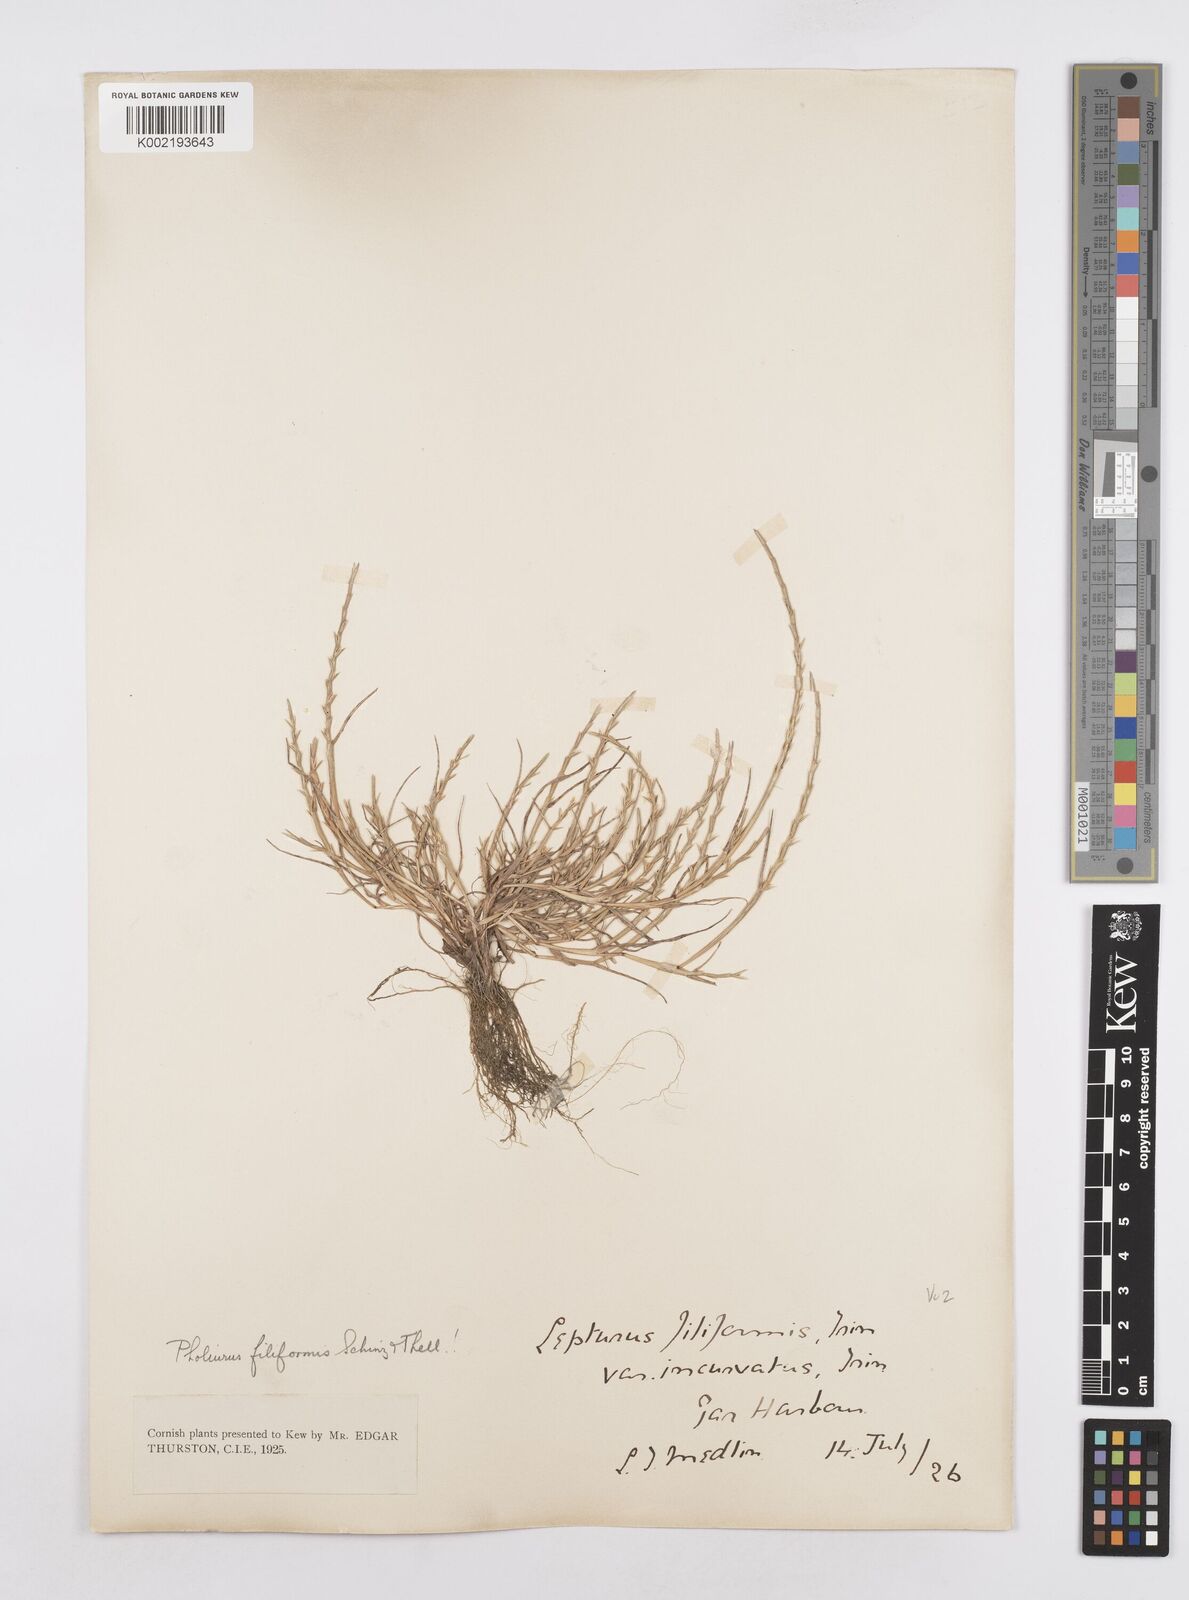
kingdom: Plantae
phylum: Tracheophyta
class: Liliopsida
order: Poales
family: Poaceae
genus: Parapholis
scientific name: Parapholis strigosa
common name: Hard-grass
